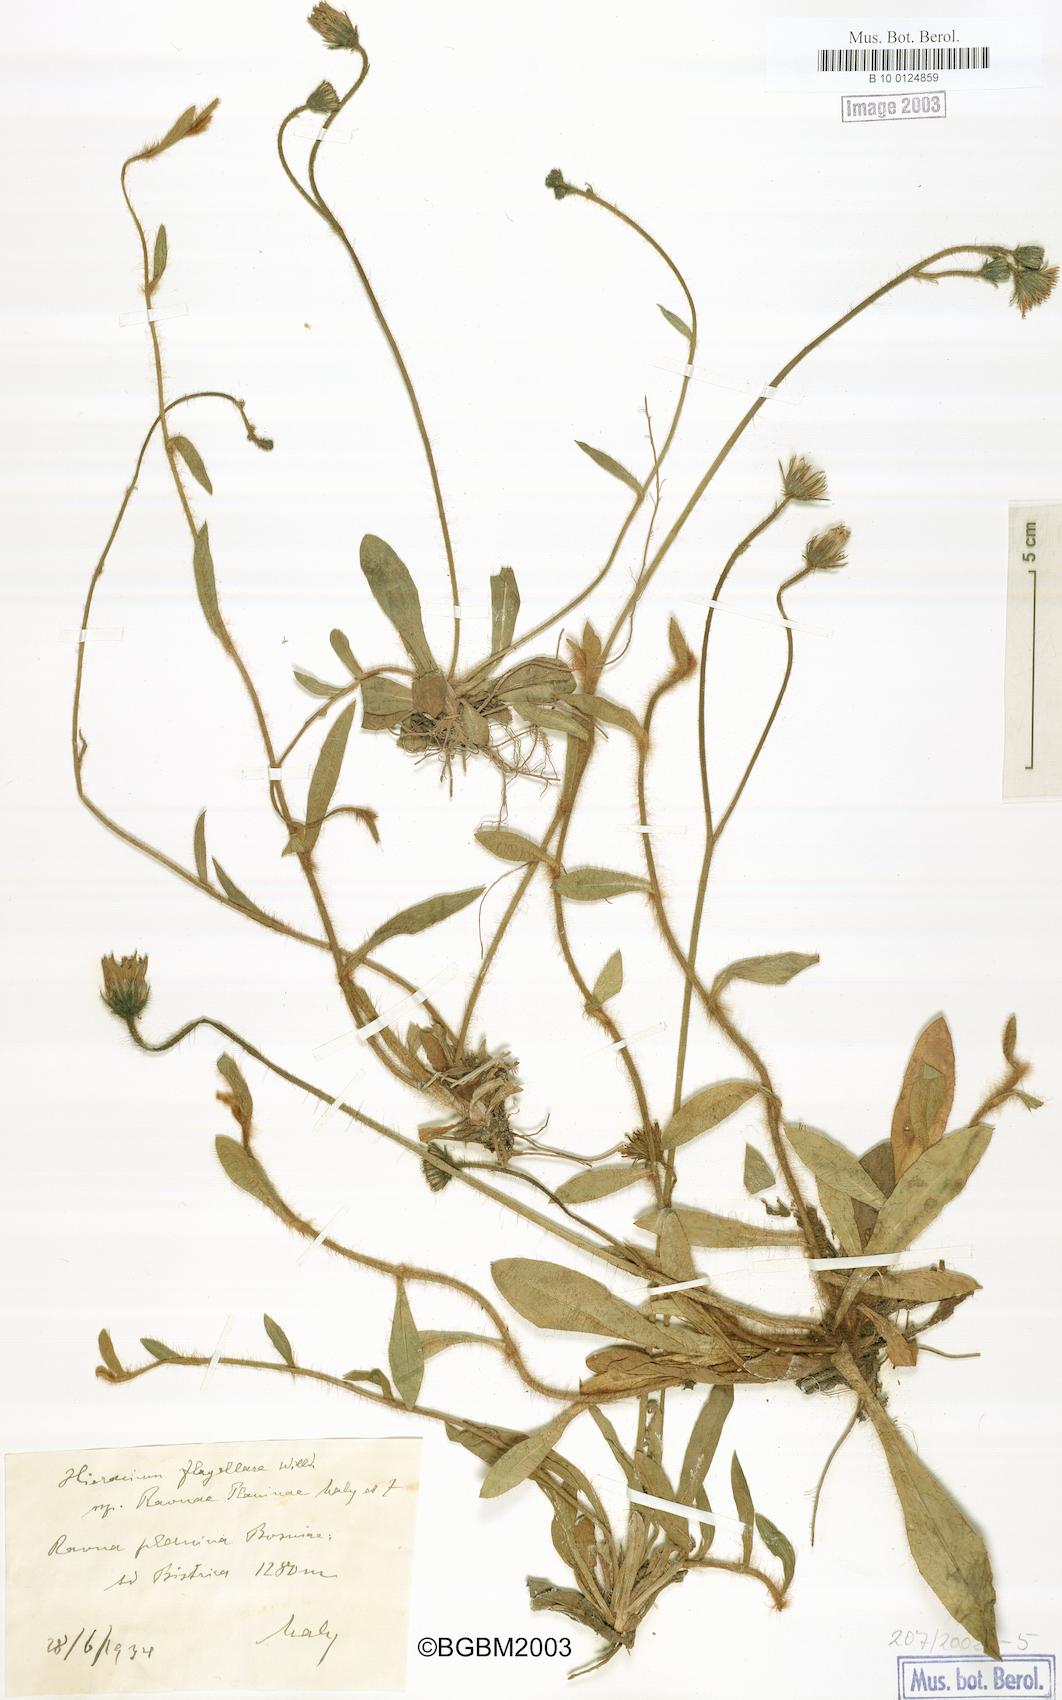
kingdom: Plantae
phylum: Tracheophyta
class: Magnoliopsida
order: Asterales
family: Asteraceae
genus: Hieracium
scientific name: Hieracium flagellare
